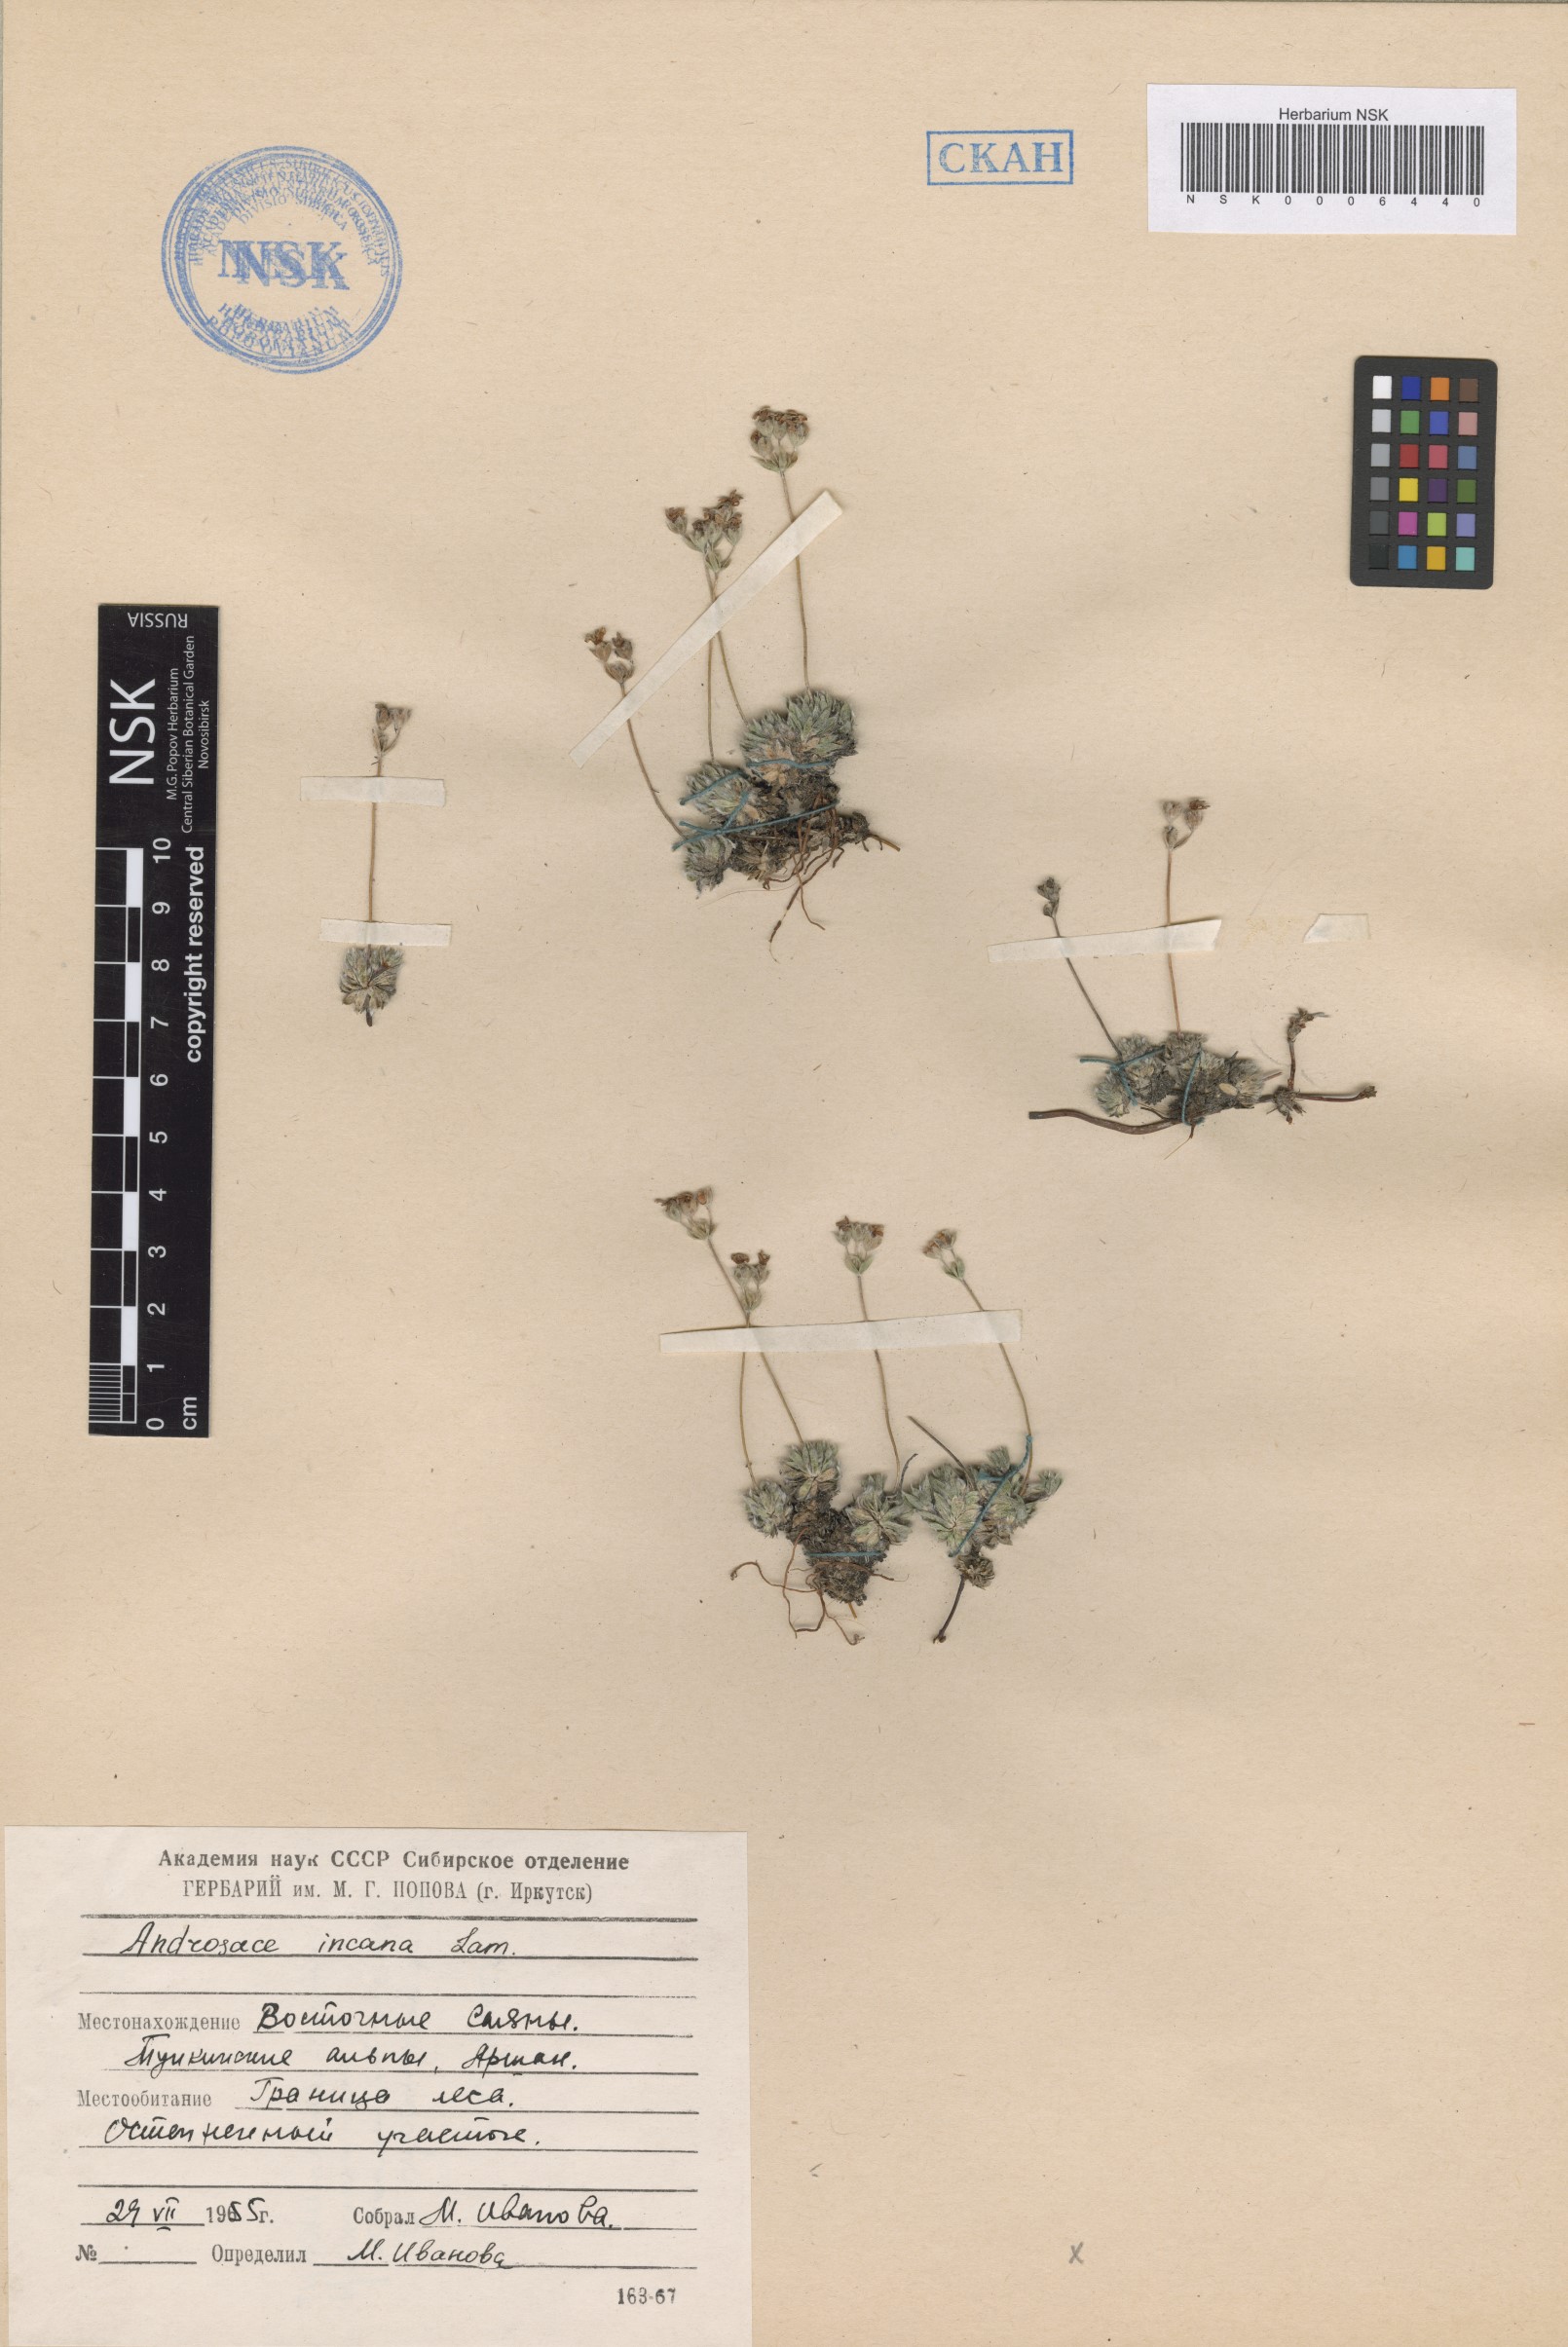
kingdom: Plantae
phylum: Tracheophyta
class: Magnoliopsida
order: Ericales
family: Primulaceae
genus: Androsace
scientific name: Androsace incana
